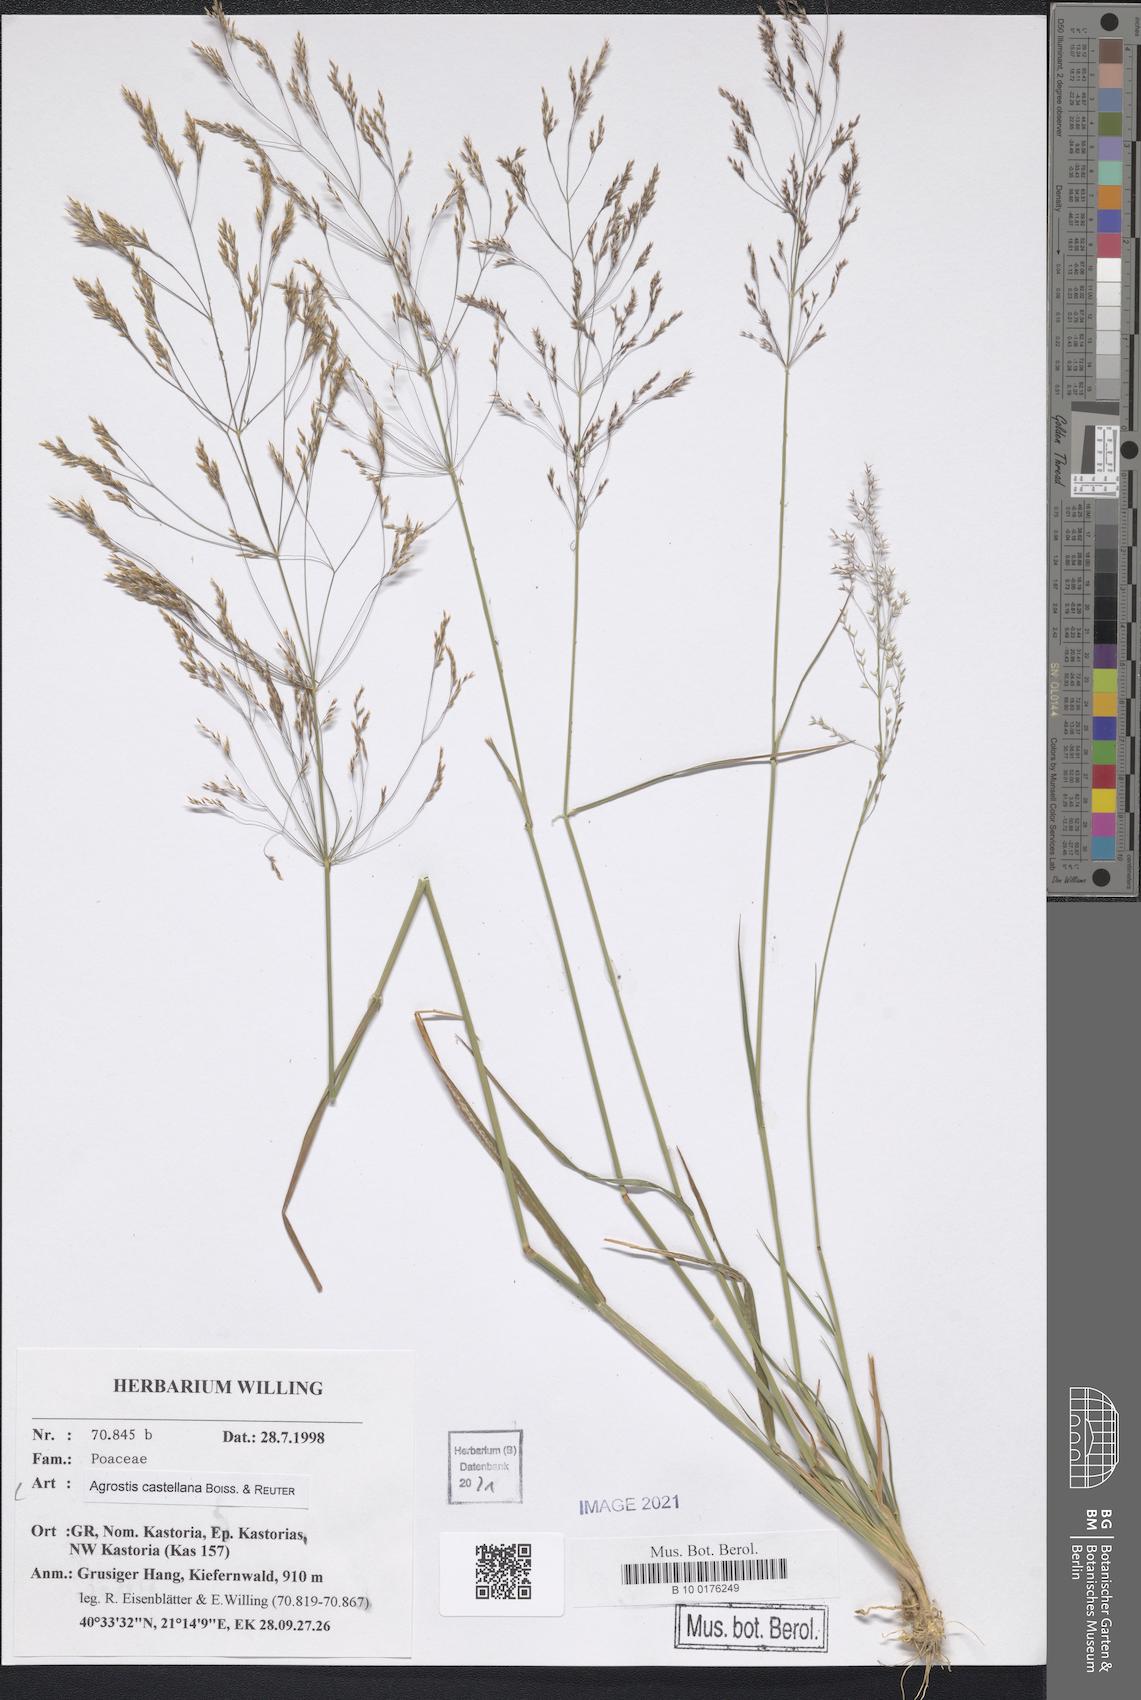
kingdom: Plantae
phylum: Tracheophyta
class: Liliopsida
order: Poales
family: Poaceae
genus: Agrostis
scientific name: Agrostis castellana
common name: Highland bent
